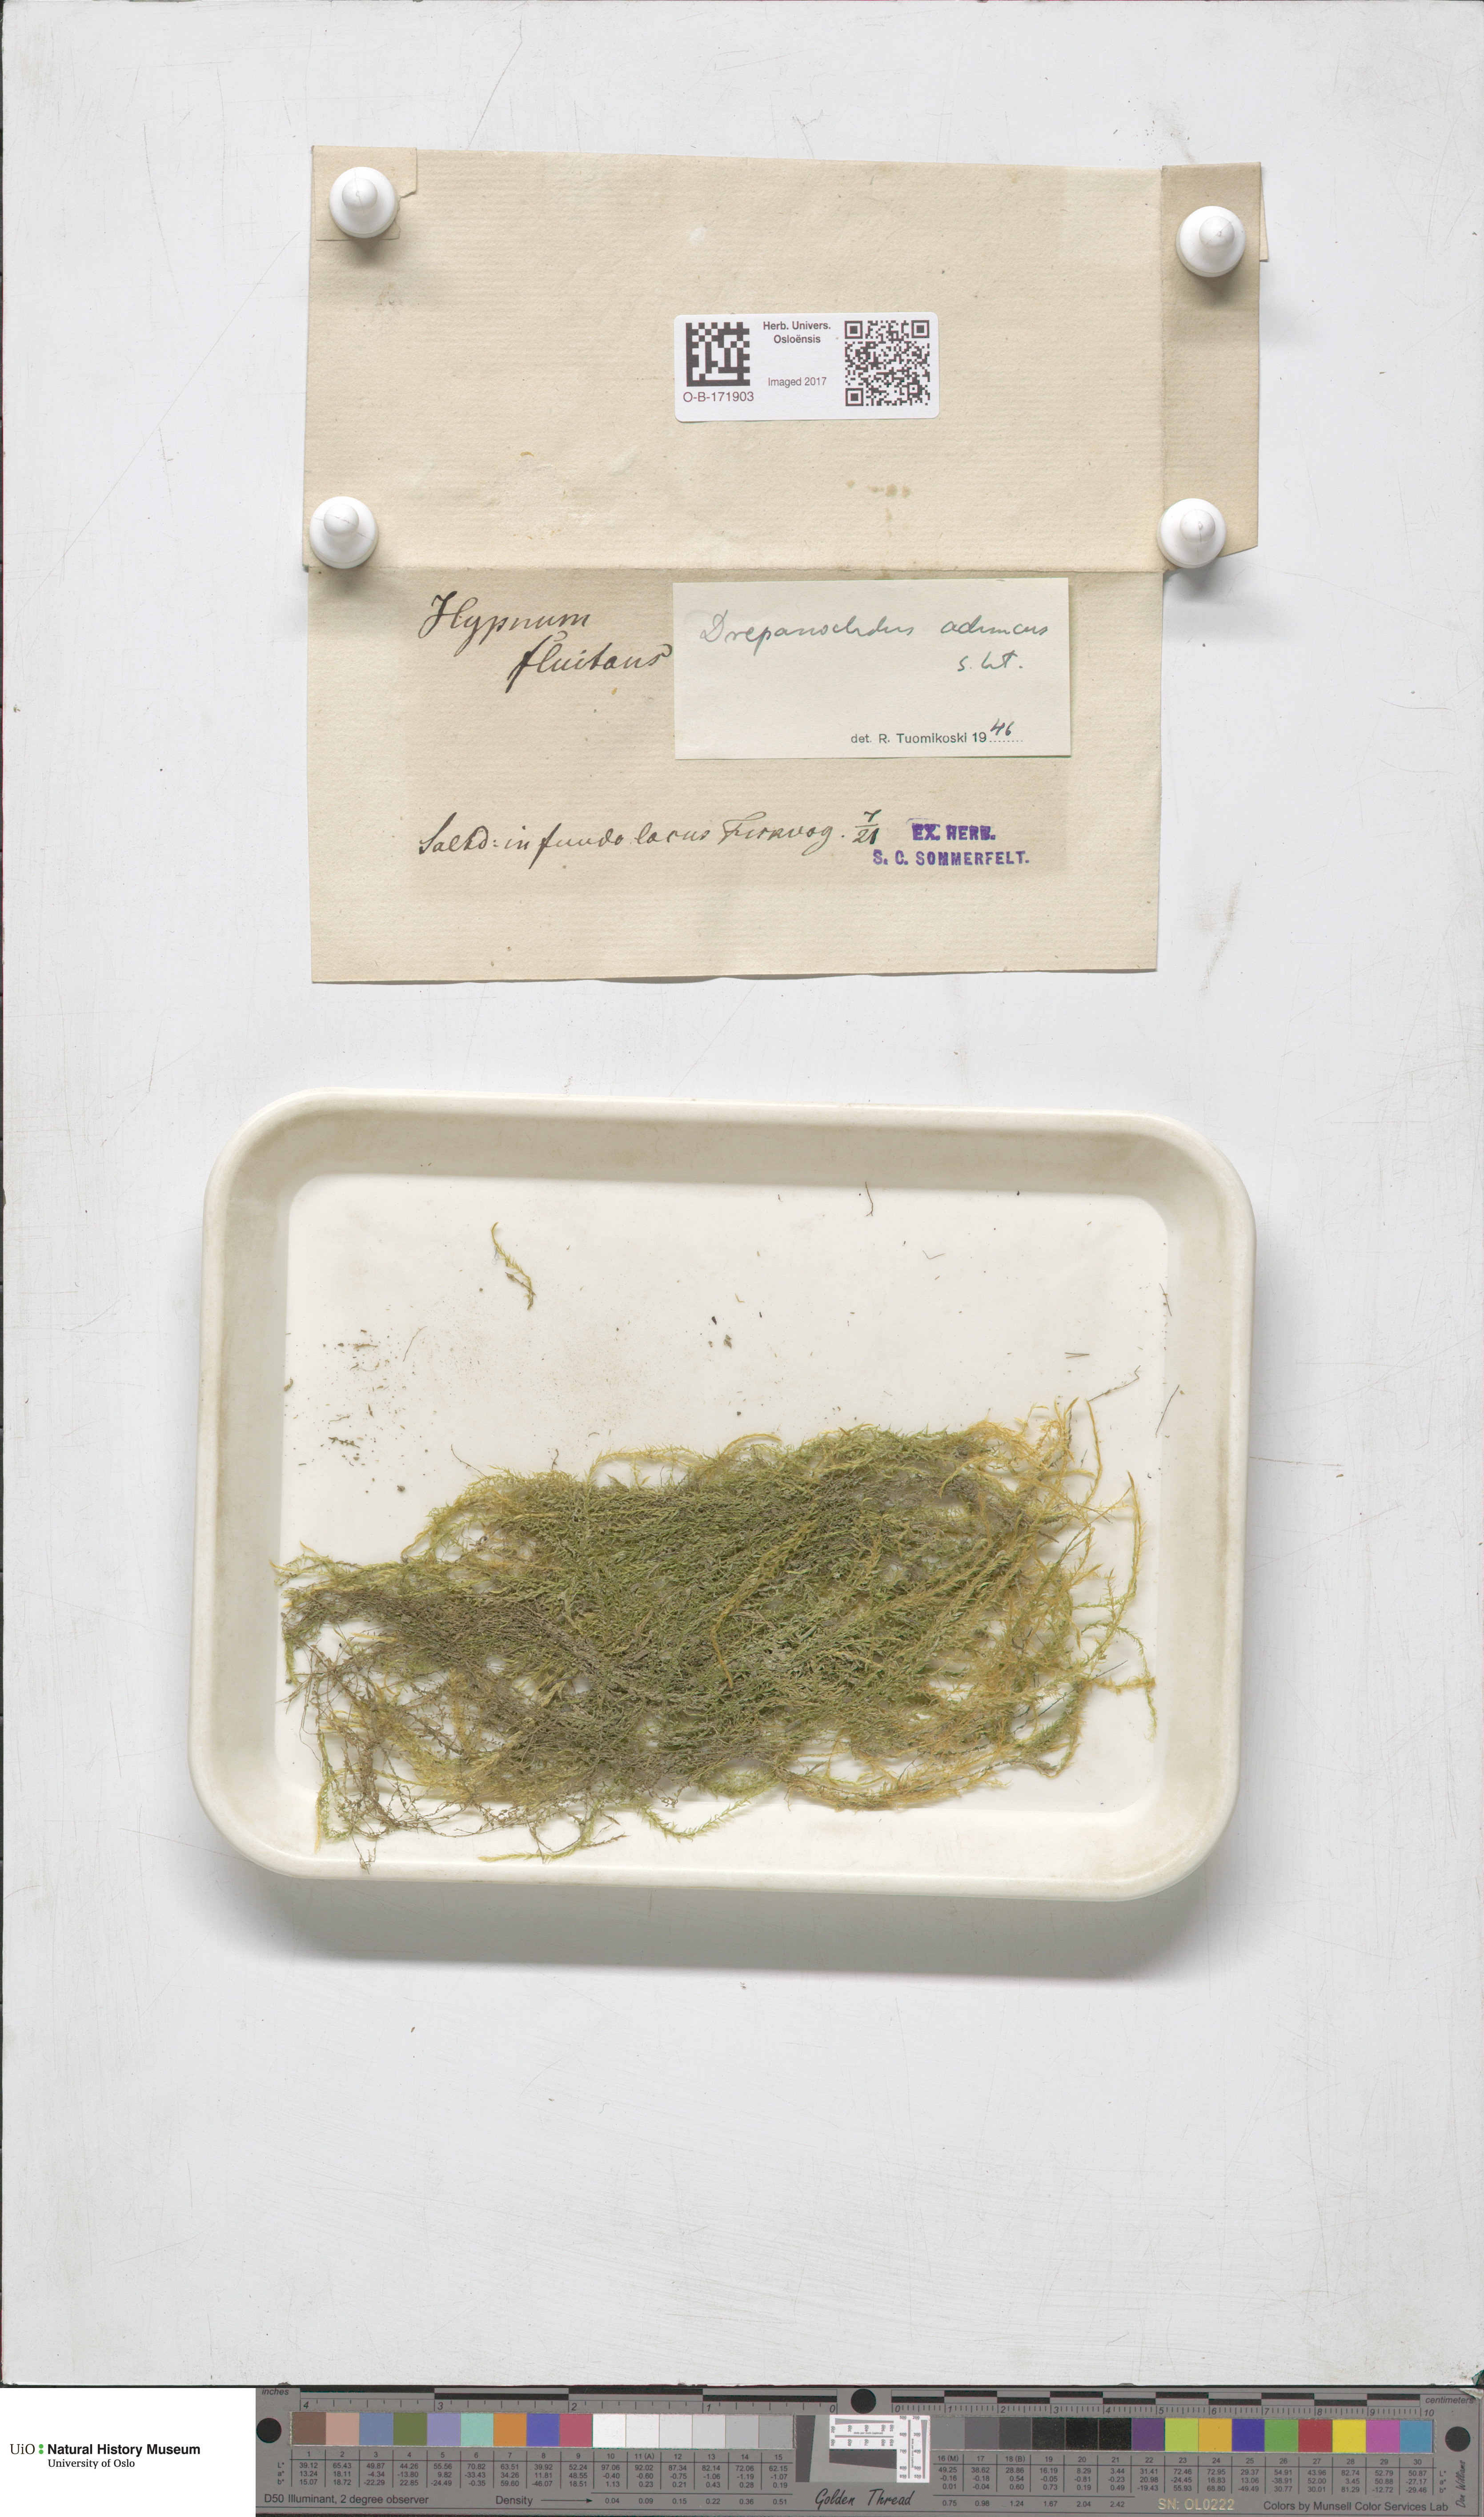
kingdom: Plantae
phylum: Bryophyta
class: Bryopsida
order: Hypnales
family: Amblystegiaceae
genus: Drepanocladus
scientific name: Drepanocladus aduncus
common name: Knieff's hook moss
